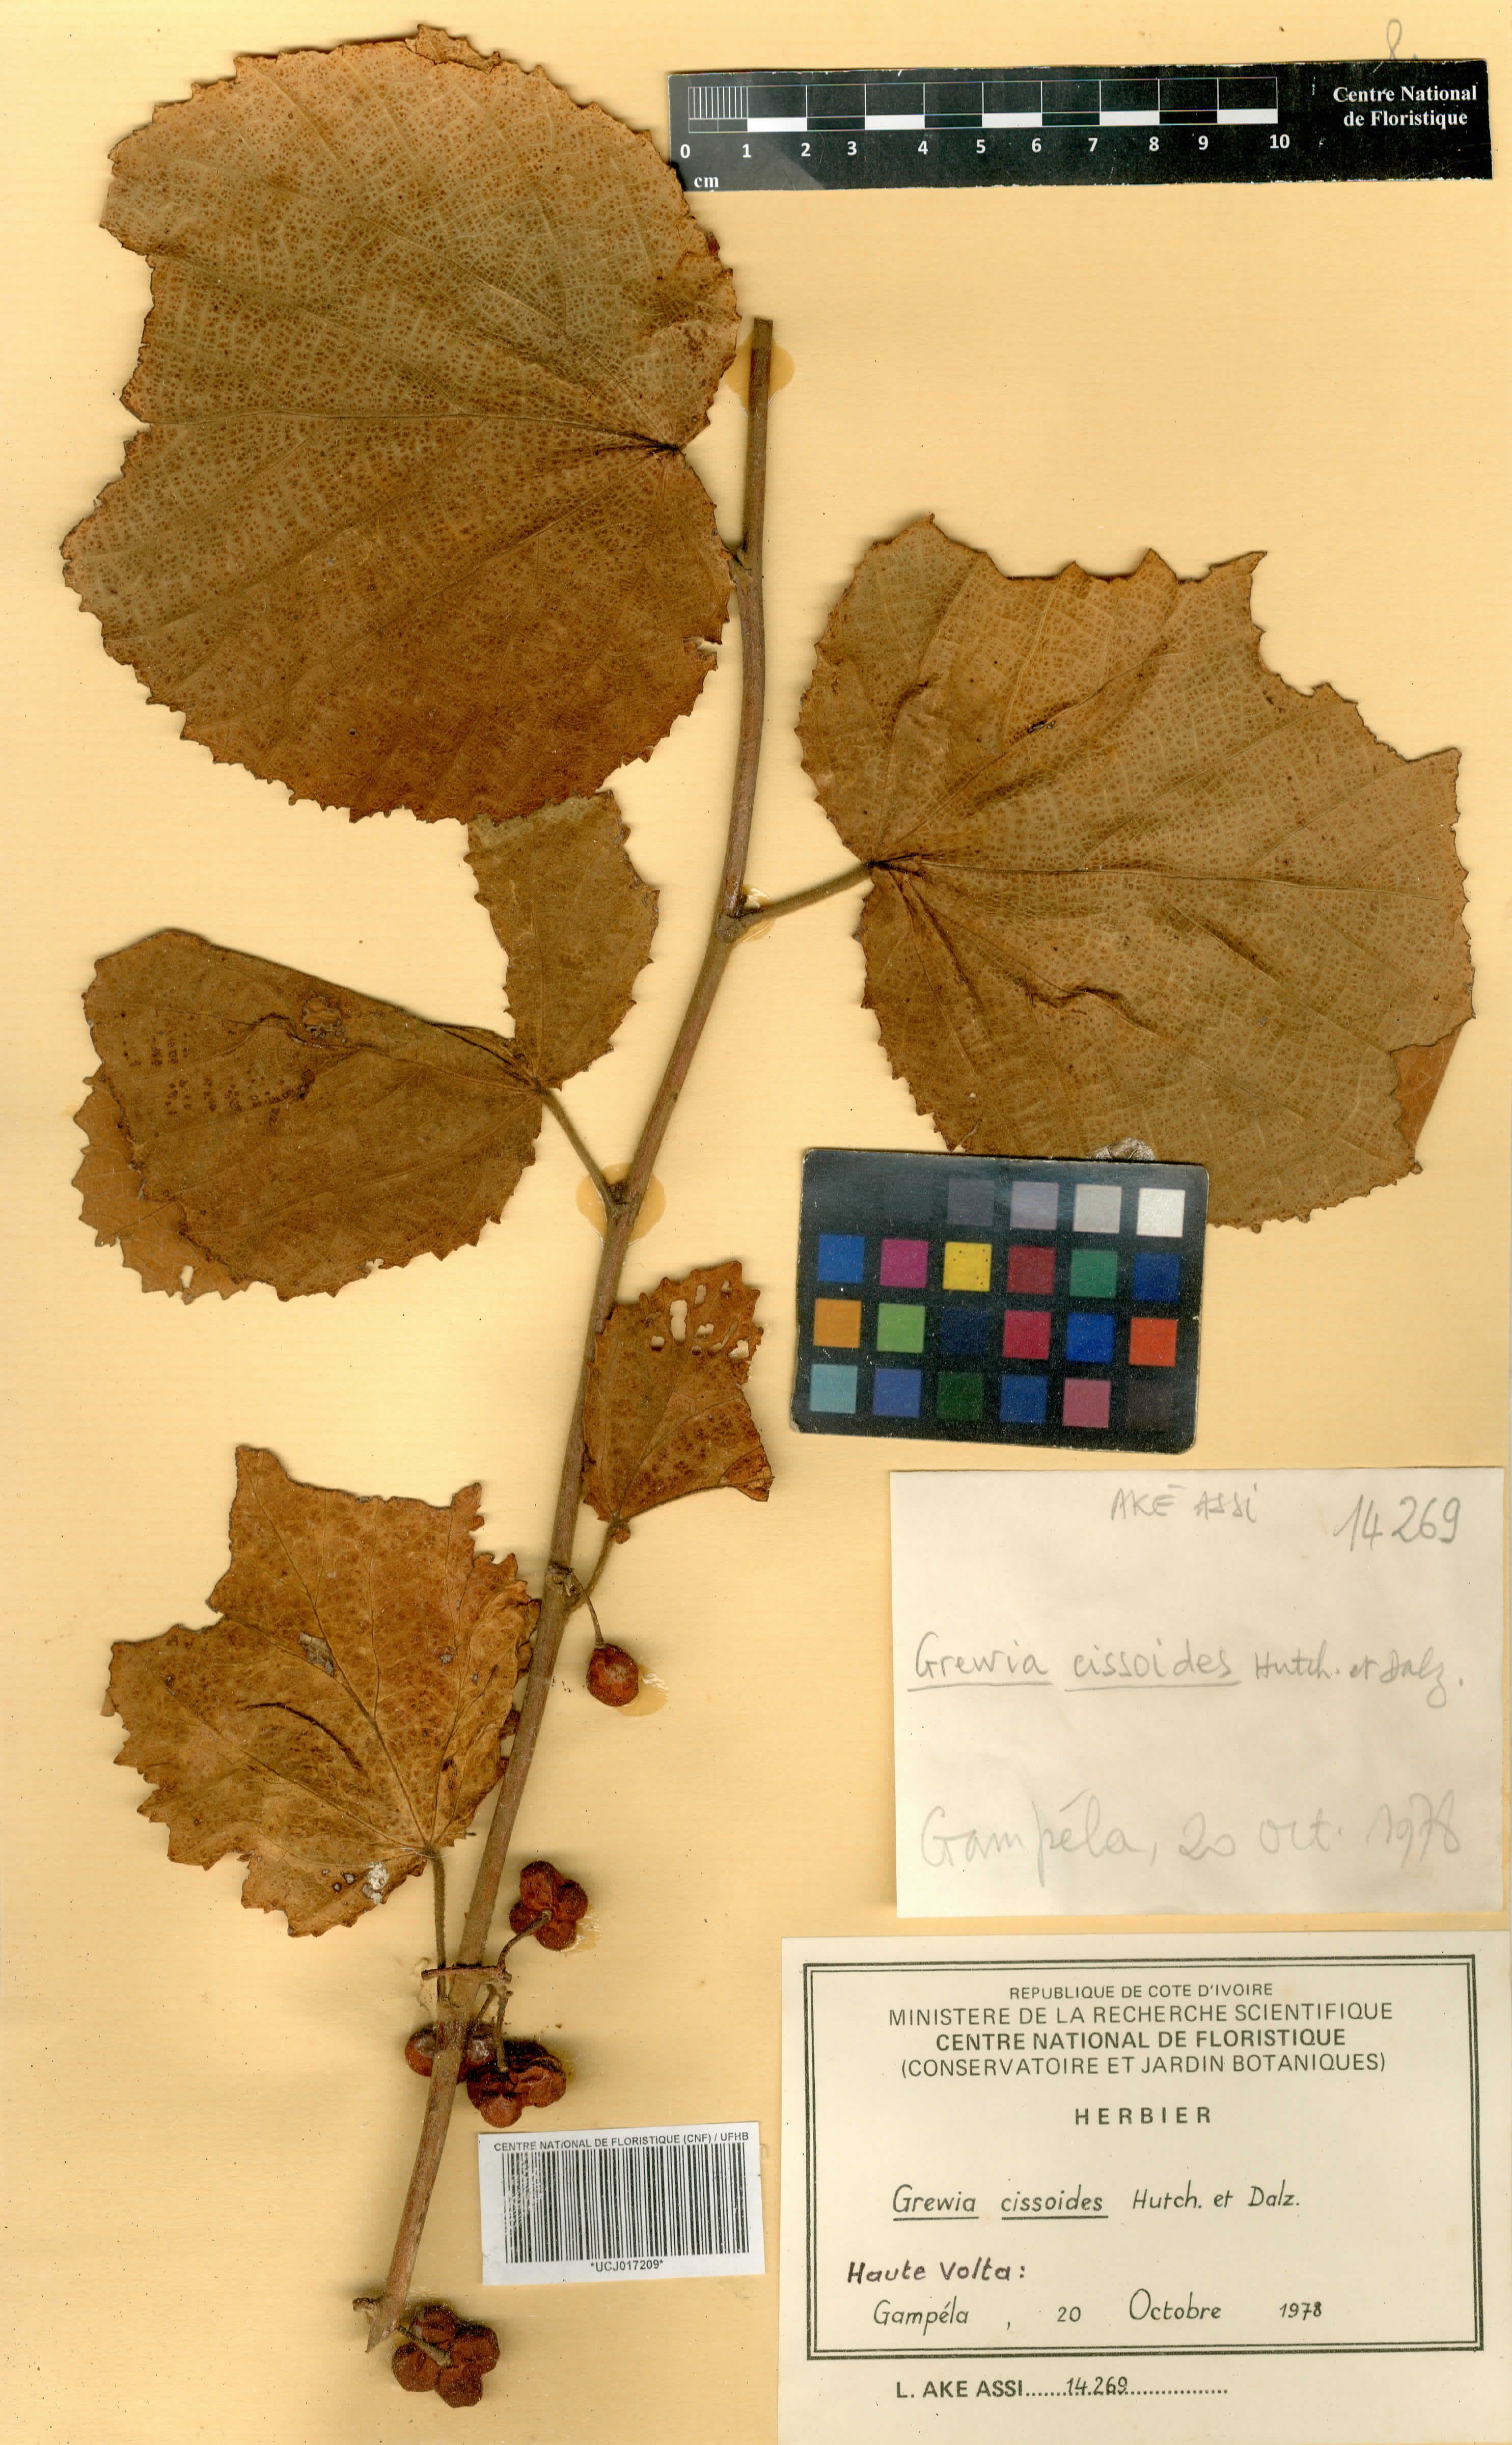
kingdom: Plantae
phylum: Tracheophyta
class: Magnoliopsida
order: Malvales
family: Malvaceae
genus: Grewia
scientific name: Grewia cissoides
